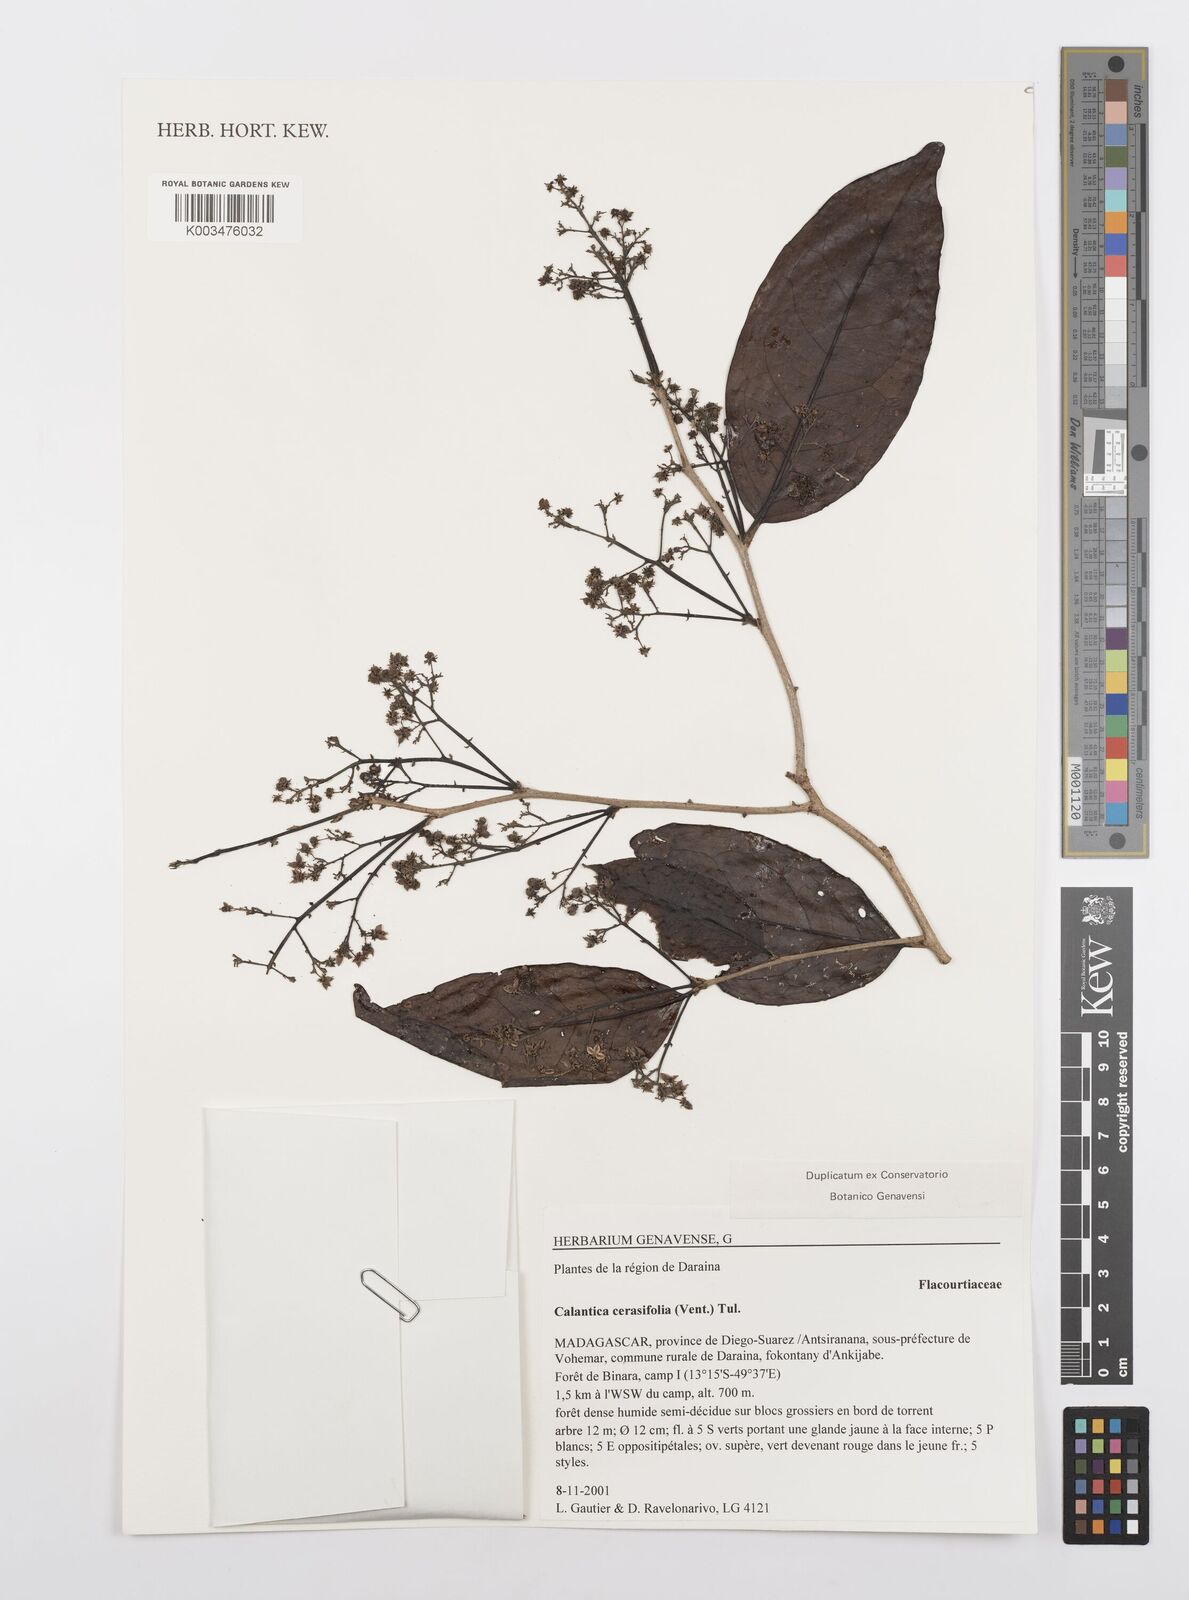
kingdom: Plantae
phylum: Tracheophyta
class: Magnoliopsida
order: Malpighiales
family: Salicaceae
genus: Calantica
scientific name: Calantica cerasifolia
